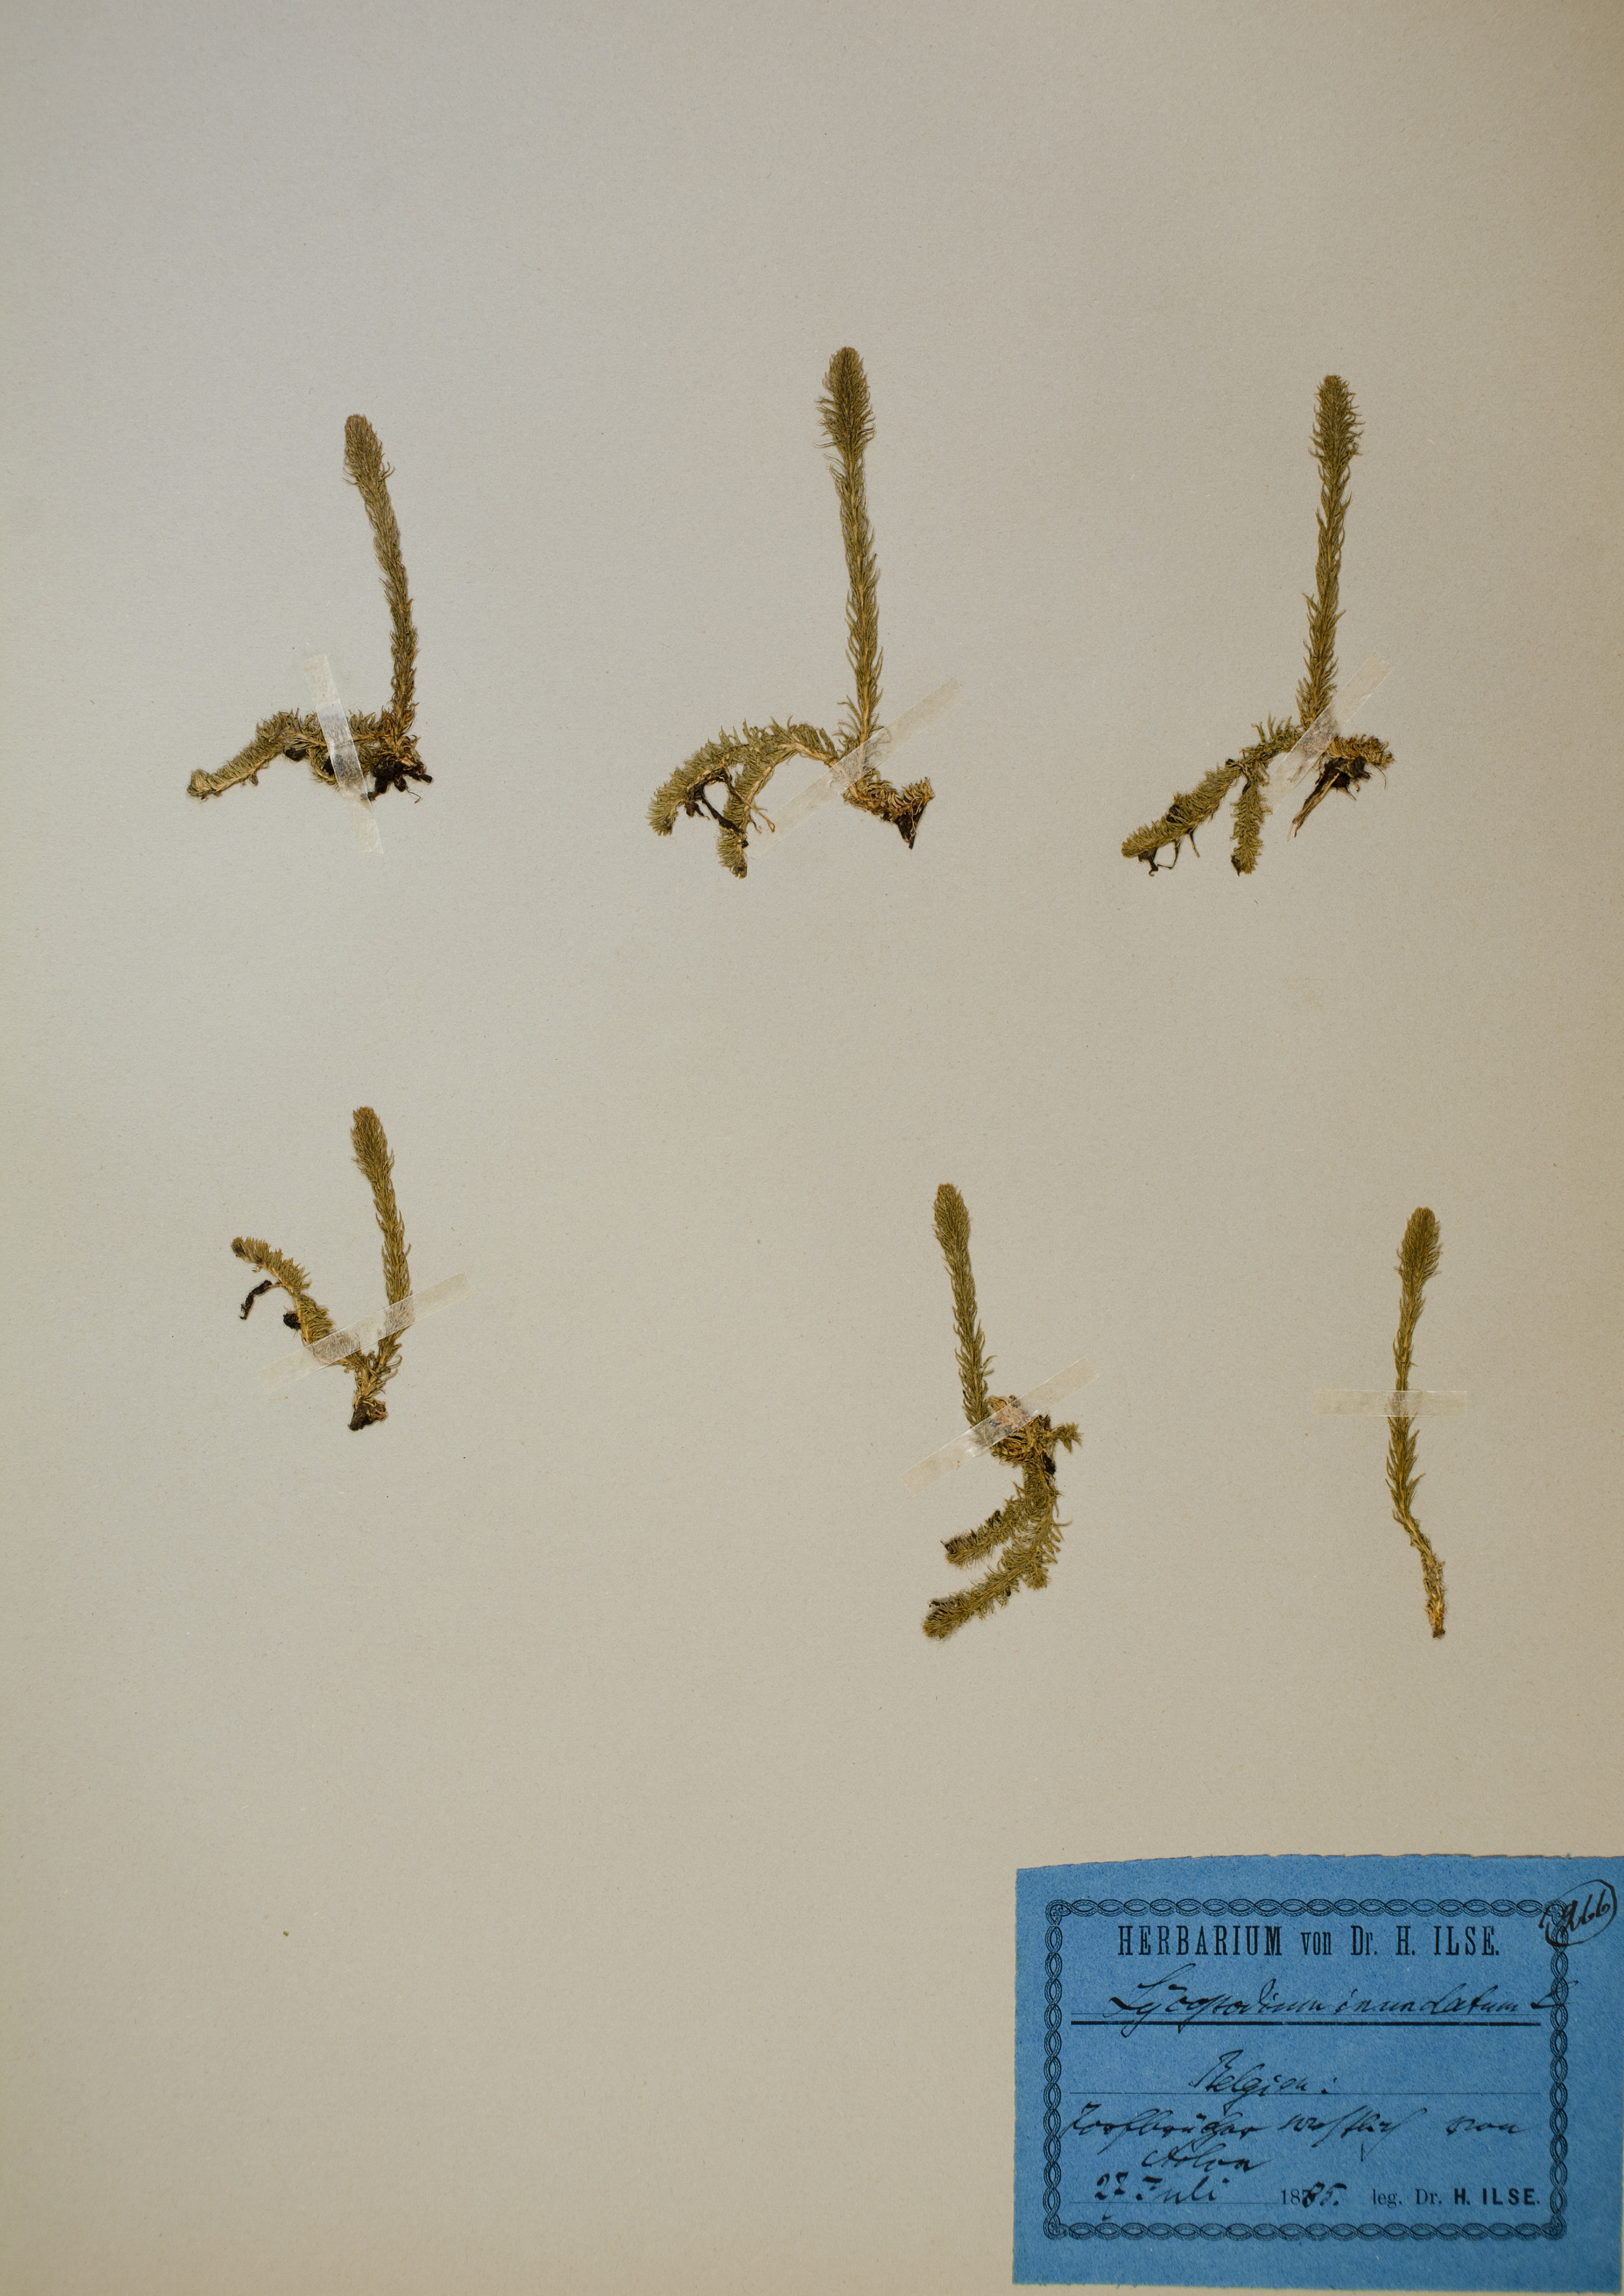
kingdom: Plantae
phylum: Tracheophyta
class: Lycopodiopsida
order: Lycopodiales
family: Lycopodiaceae
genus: Lycopodiella
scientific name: Lycopodiella inundata
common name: Marsh clubmoss
